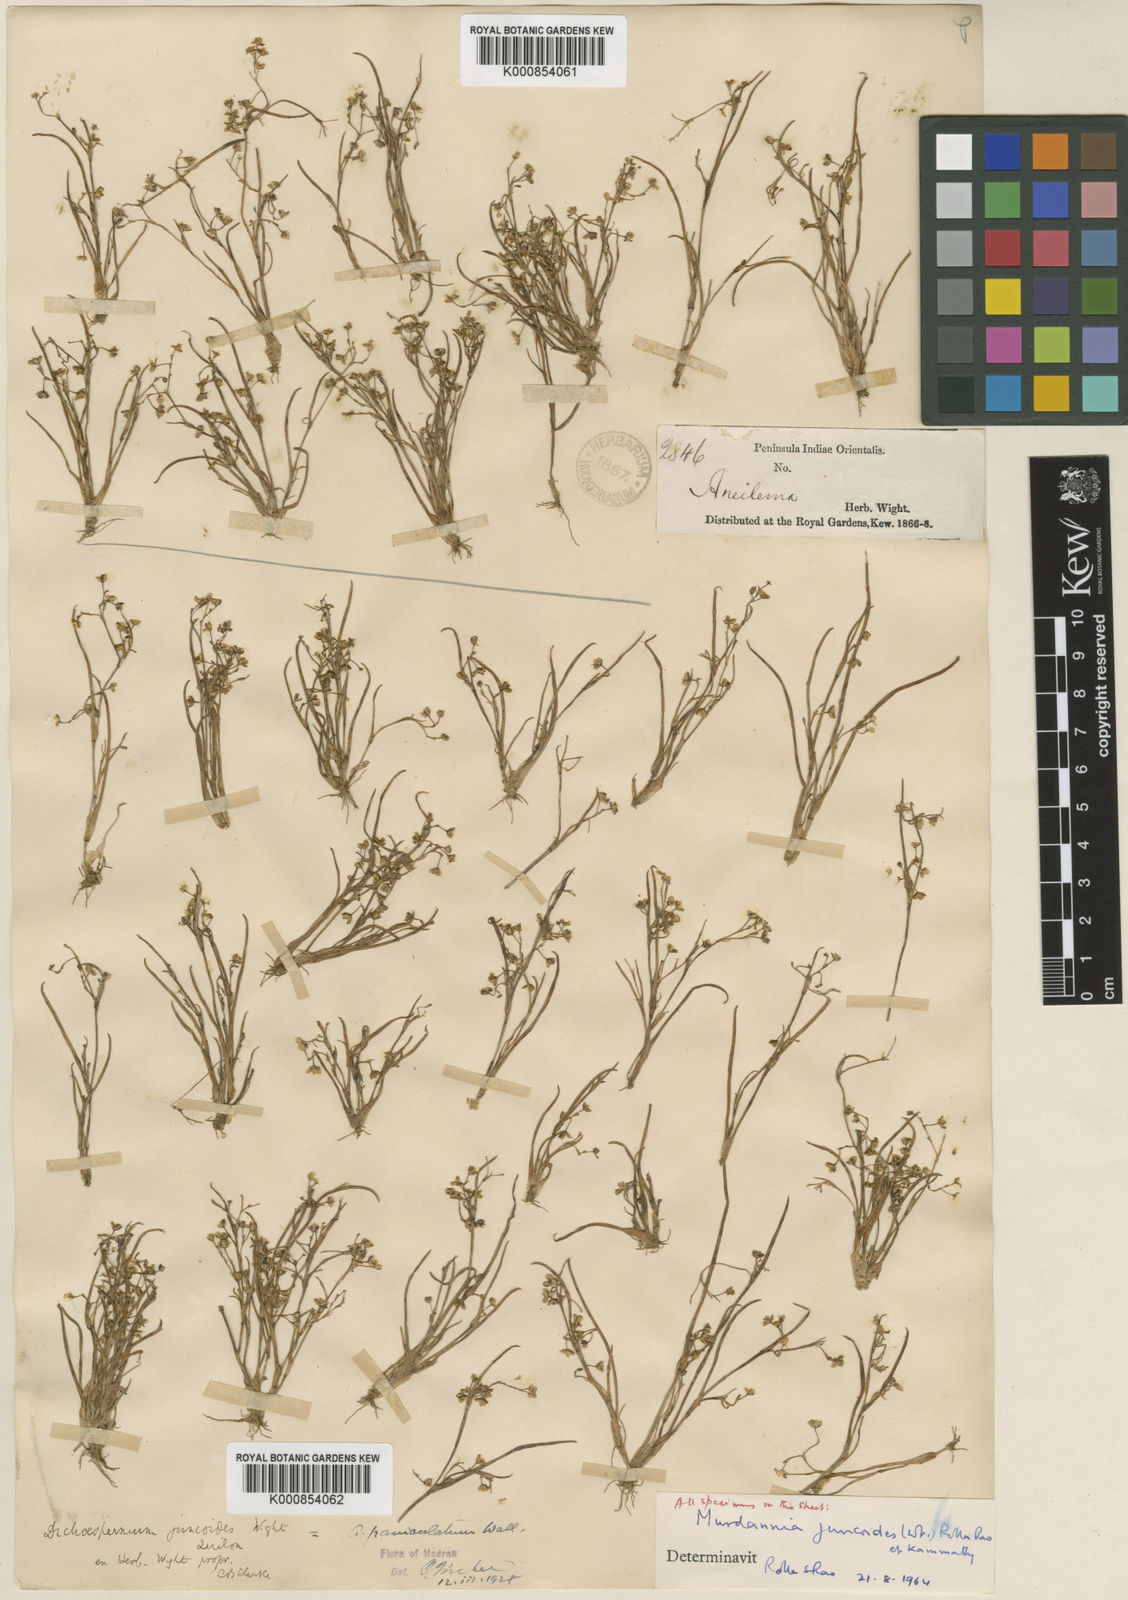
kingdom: Plantae
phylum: Tracheophyta
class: Liliopsida
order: Commelinales
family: Commelinaceae
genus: Murdannia
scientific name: Murdannia semiteres
